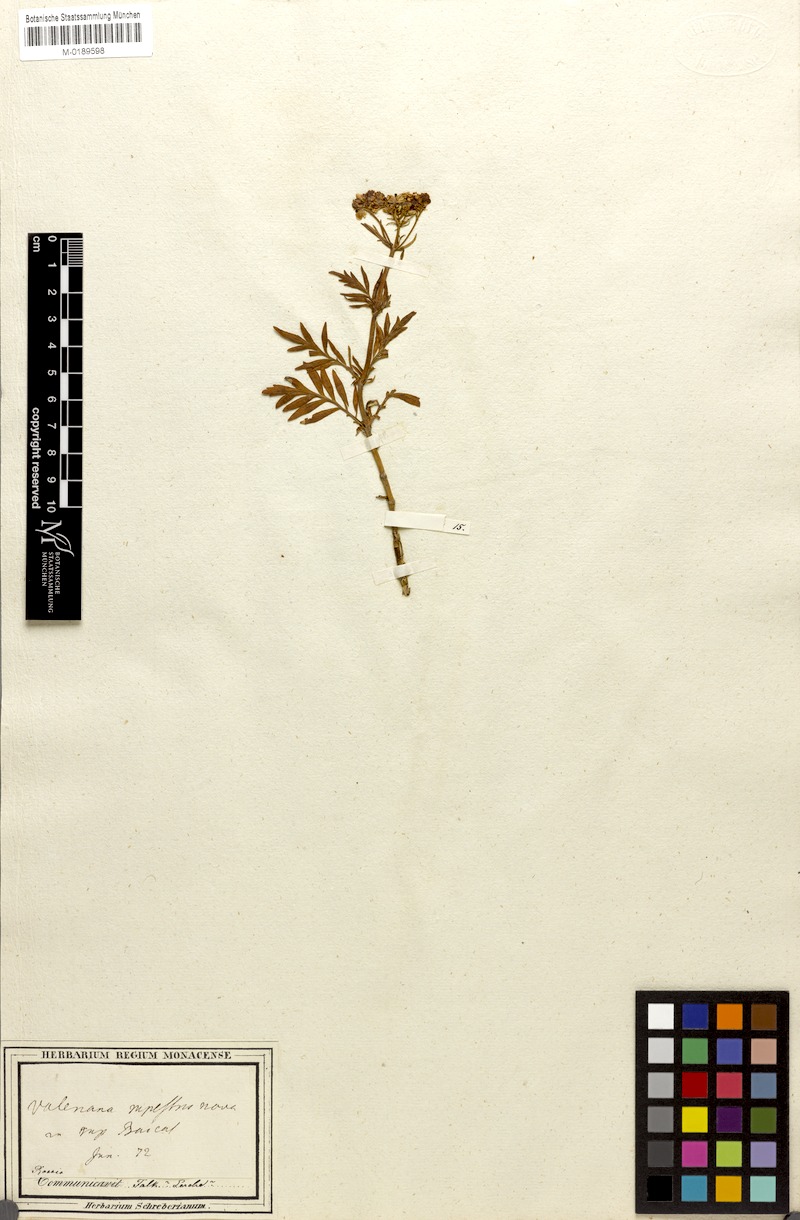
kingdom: Plantae
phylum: Tracheophyta
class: Magnoliopsida
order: Dipsacales
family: Caprifoliaceae
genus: Patrinia
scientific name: Patrinia rupestris
